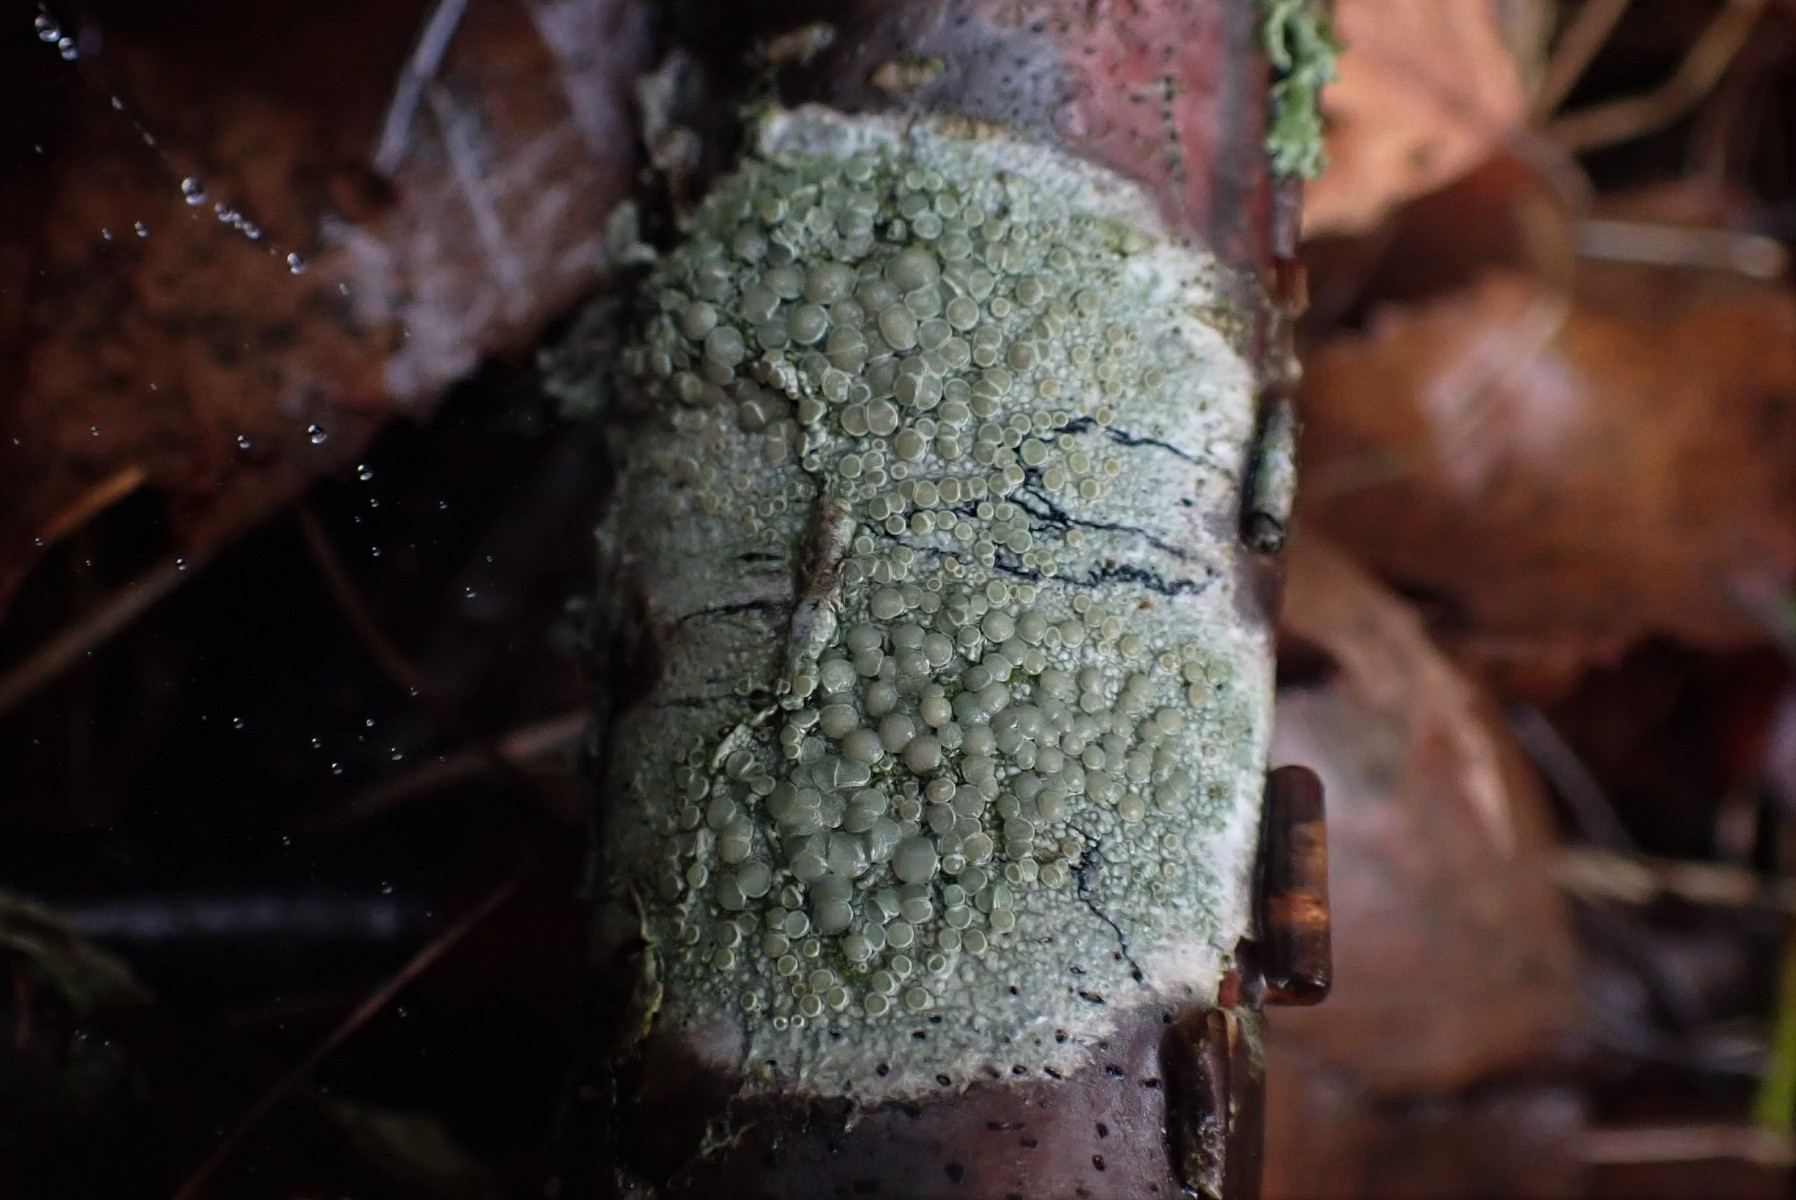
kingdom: Fungi
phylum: Ascomycota
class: Lecanoromycetes
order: Lecanorales
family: Lecanoraceae
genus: Lecanora
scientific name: Lecanora chlarotera
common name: brun kantskivelav
